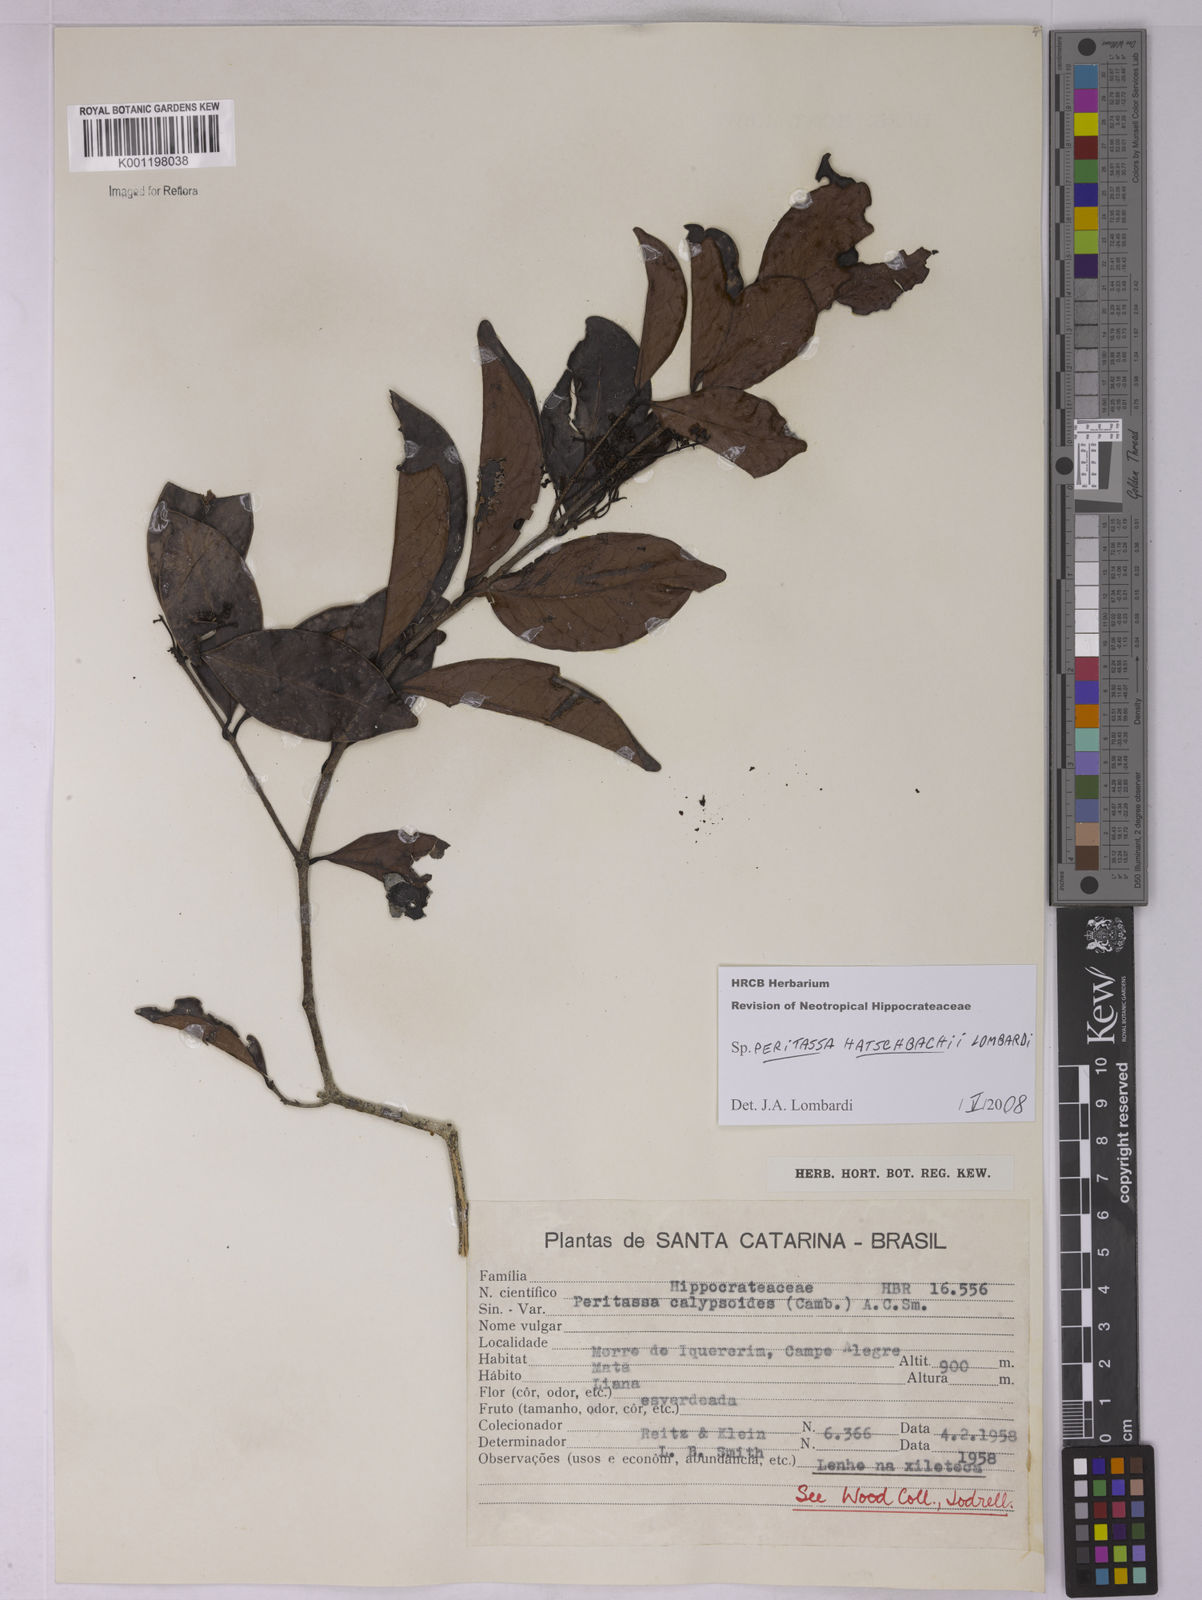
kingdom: Plantae
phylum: Tracheophyta
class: Magnoliopsida
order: Celastrales
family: Celastraceae
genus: Peritassa
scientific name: Peritassa hatschbachii
